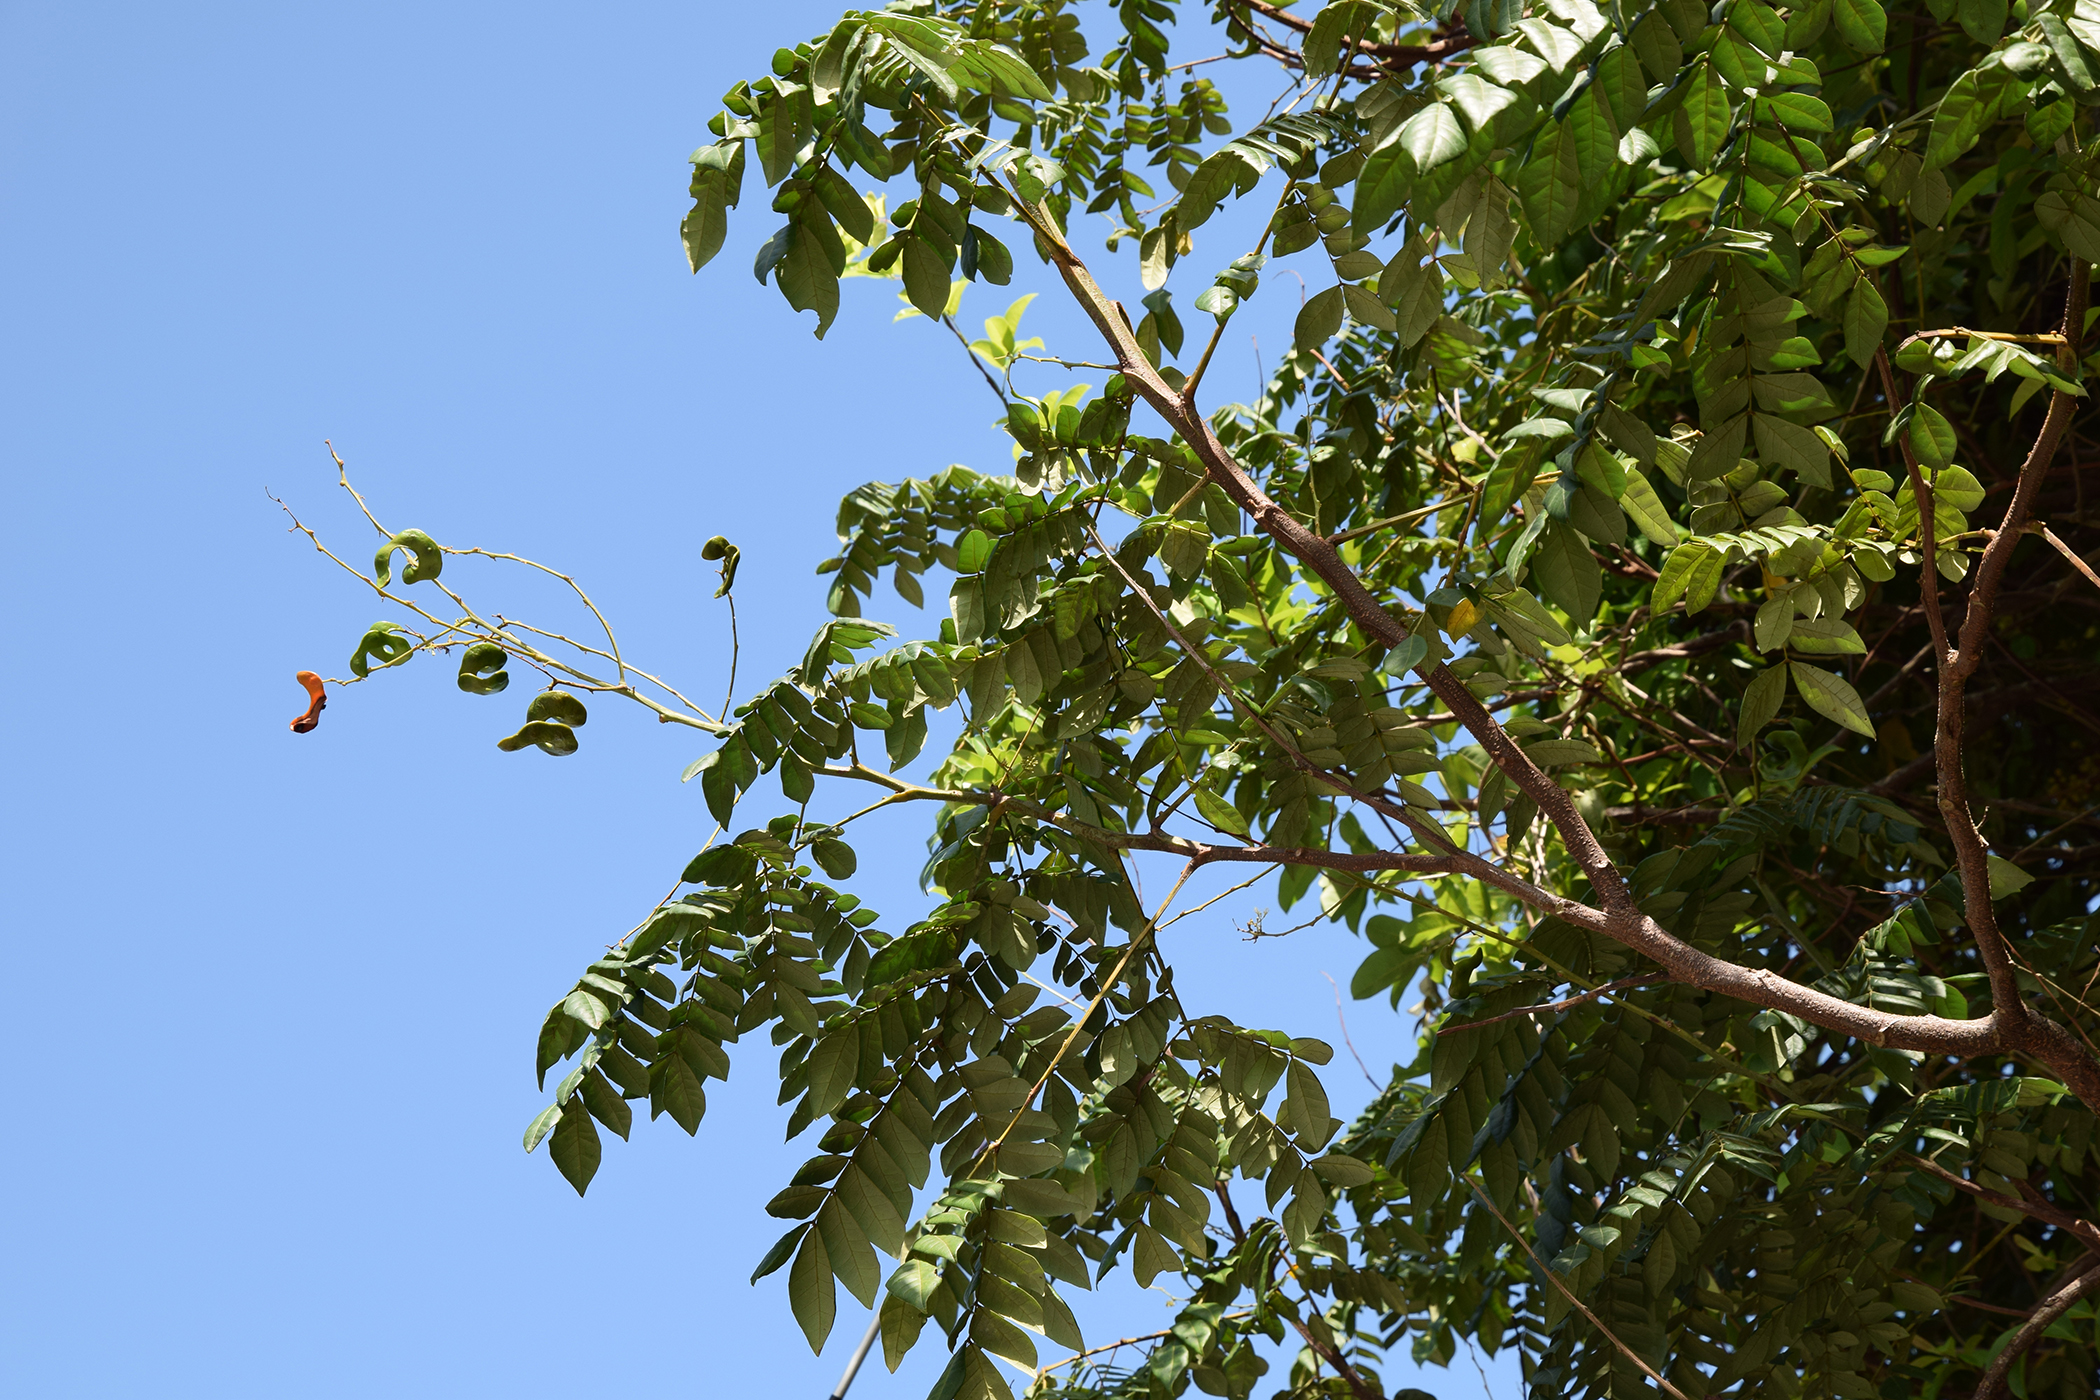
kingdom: Plantae
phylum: Tracheophyta
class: Magnoliopsida
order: Fabales
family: Fabaceae
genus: Archidendron
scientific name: Archidendron clypearia
